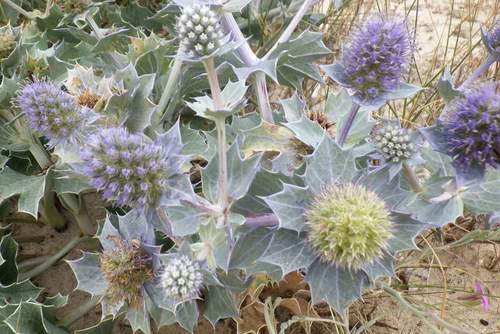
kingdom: Plantae
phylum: Tracheophyta
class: Magnoliopsida
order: Apiales
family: Apiaceae
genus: Eryngium
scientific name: Eryngium maritimum
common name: Sea-holly
